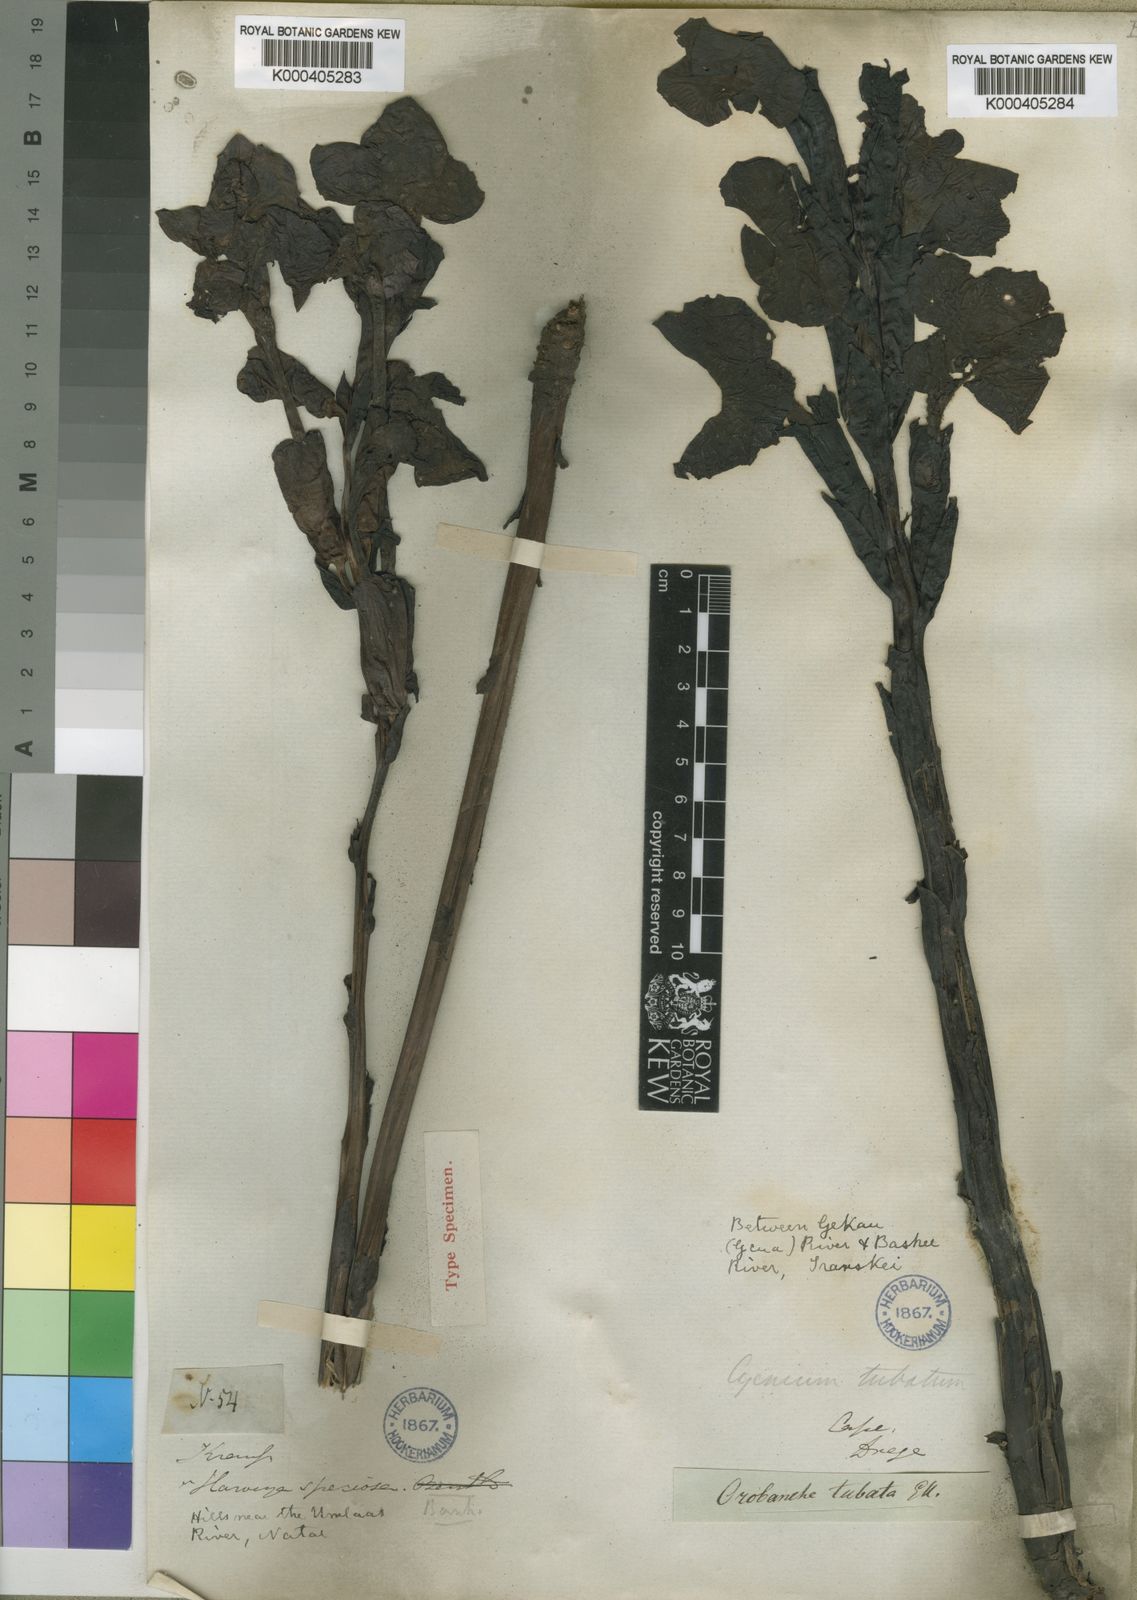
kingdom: Plantae
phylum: Tracheophyta
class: Magnoliopsida
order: Lamiales
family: Orobanchaceae
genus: Harveya
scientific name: Harveya speciosa
